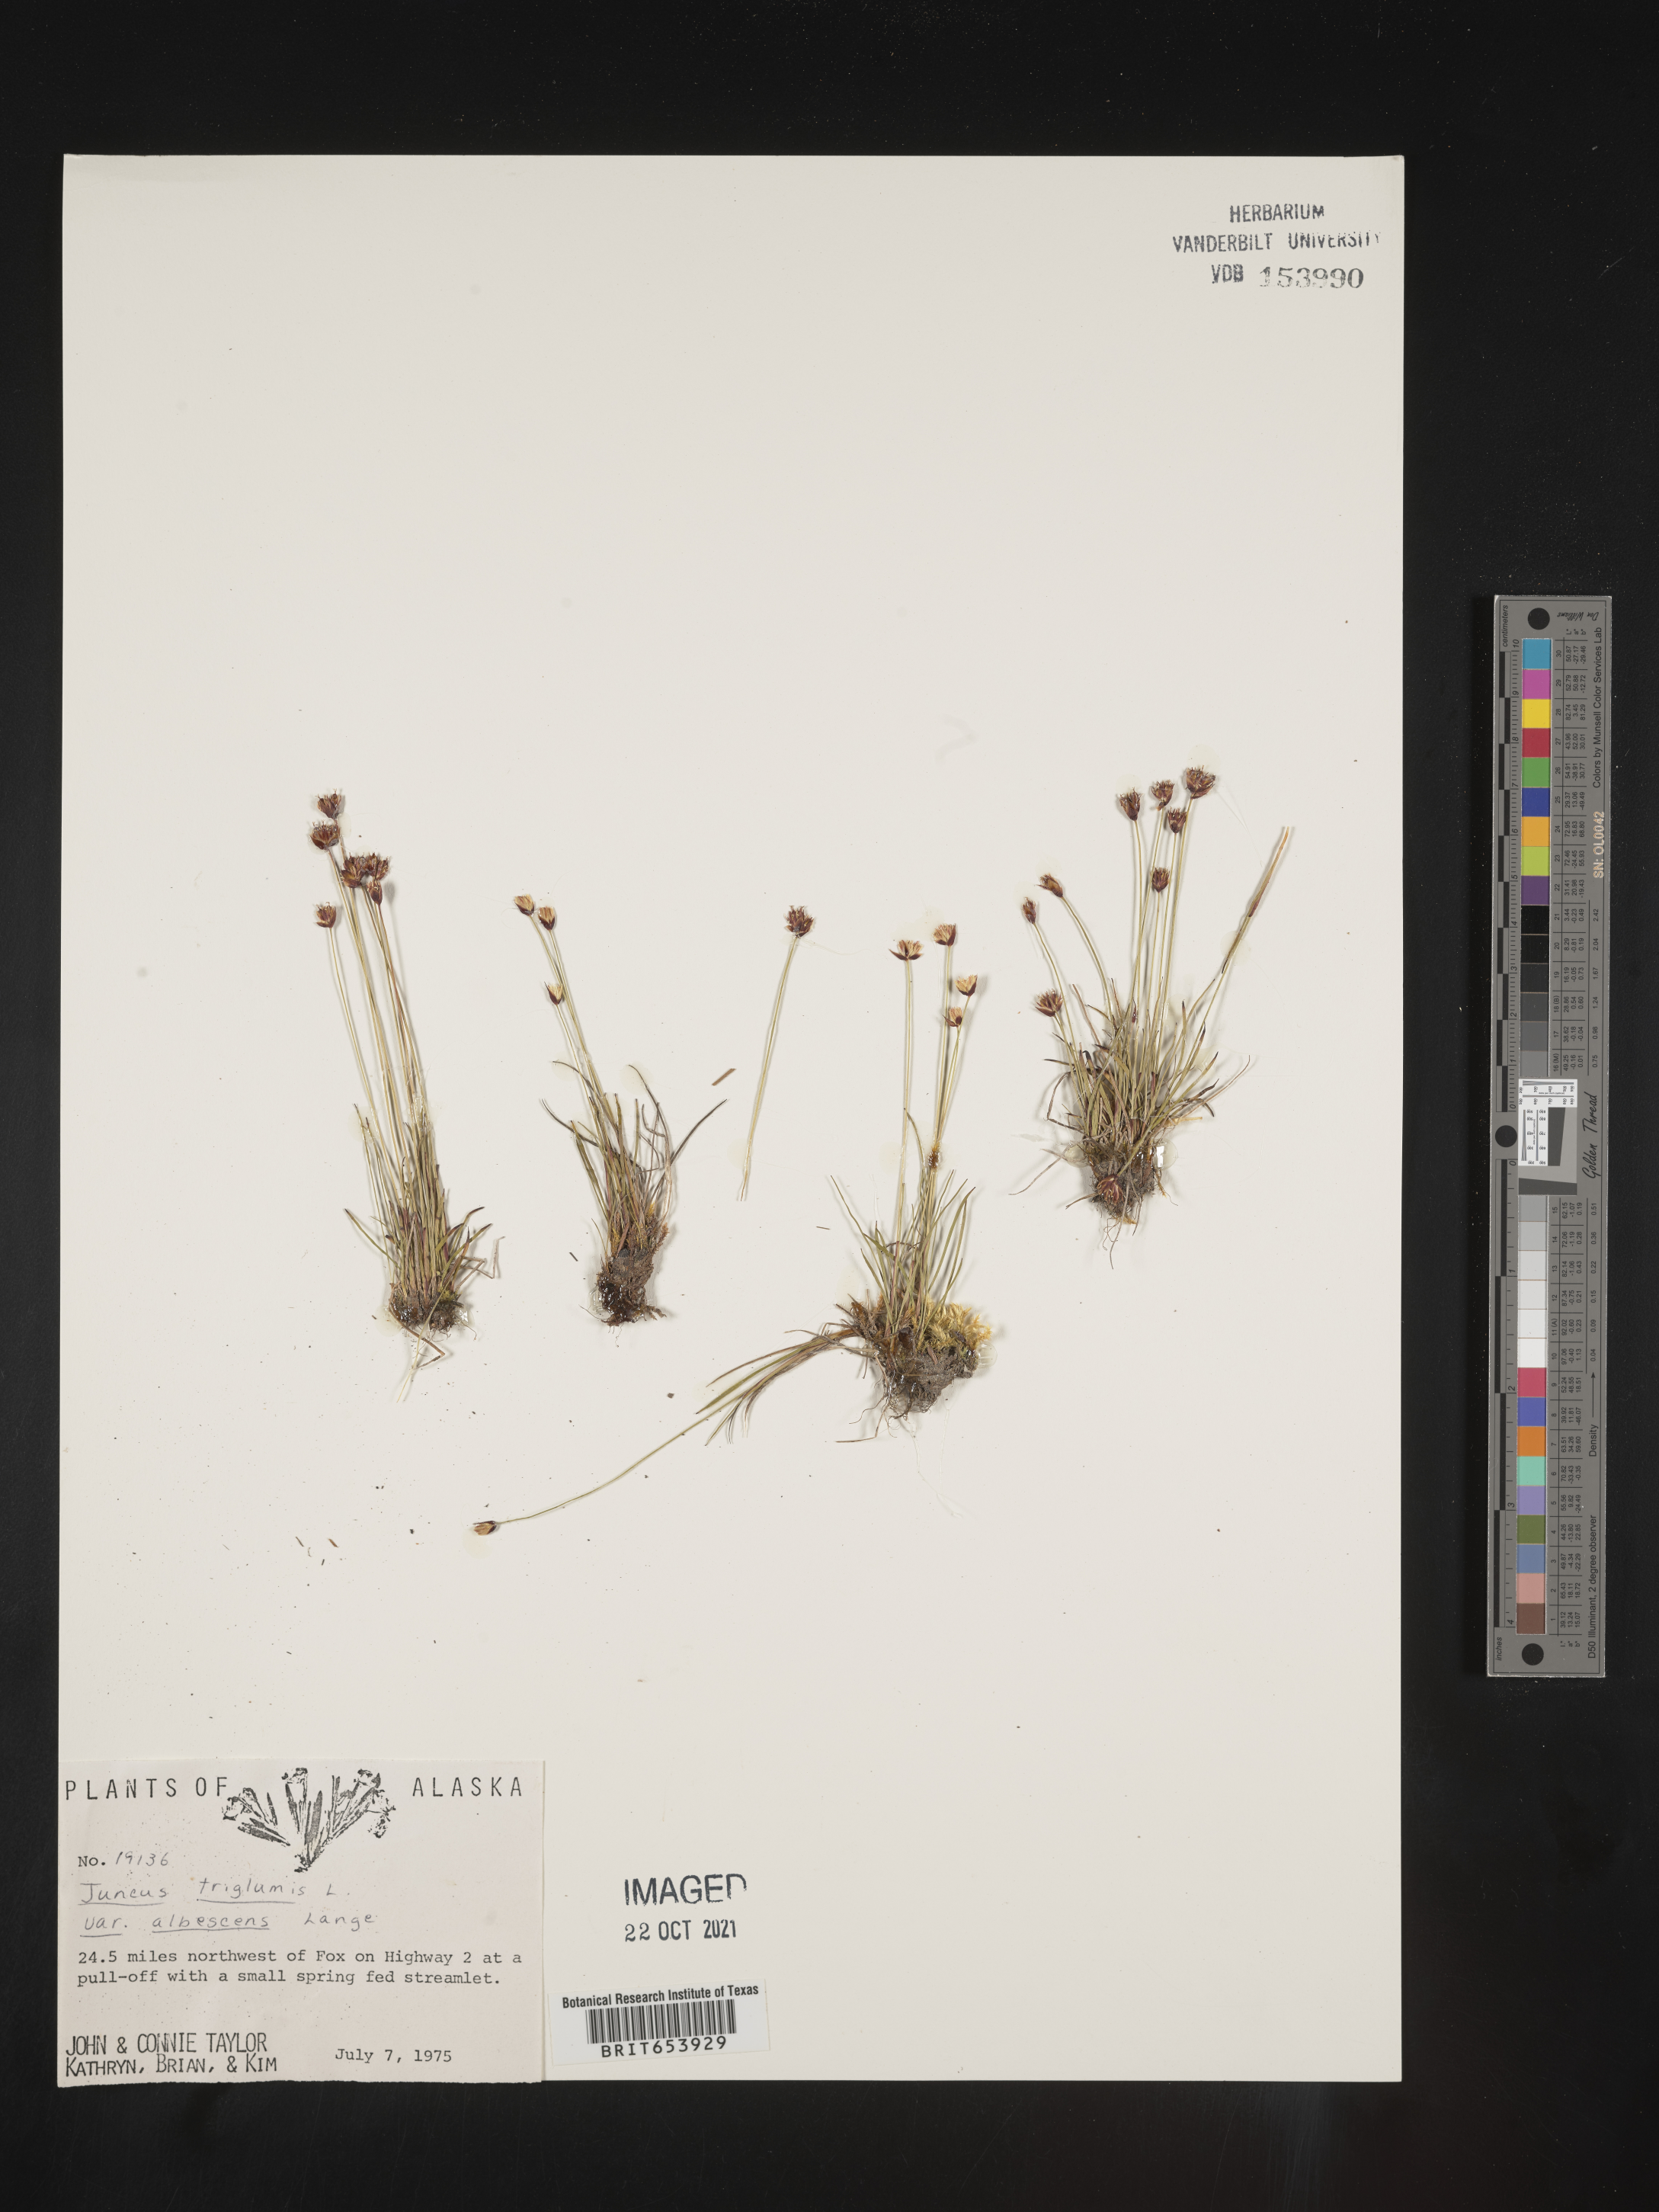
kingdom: Plantae
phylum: Tracheophyta
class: Liliopsida
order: Poales
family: Juncaceae
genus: Juncus
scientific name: Juncus marginatus
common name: Grass-leaf rush
